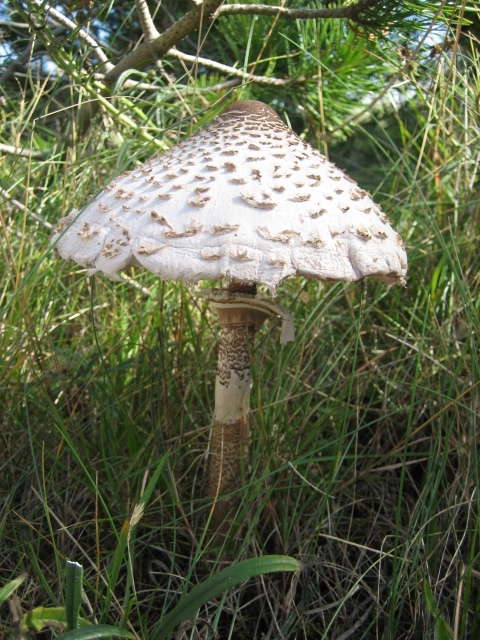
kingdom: Fungi
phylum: Basidiomycota
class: Agaricomycetes
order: Agaricales
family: Agaricaceae
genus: Macrolepiota
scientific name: Macrolepiota procera
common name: stor kæmpeparasolhat
